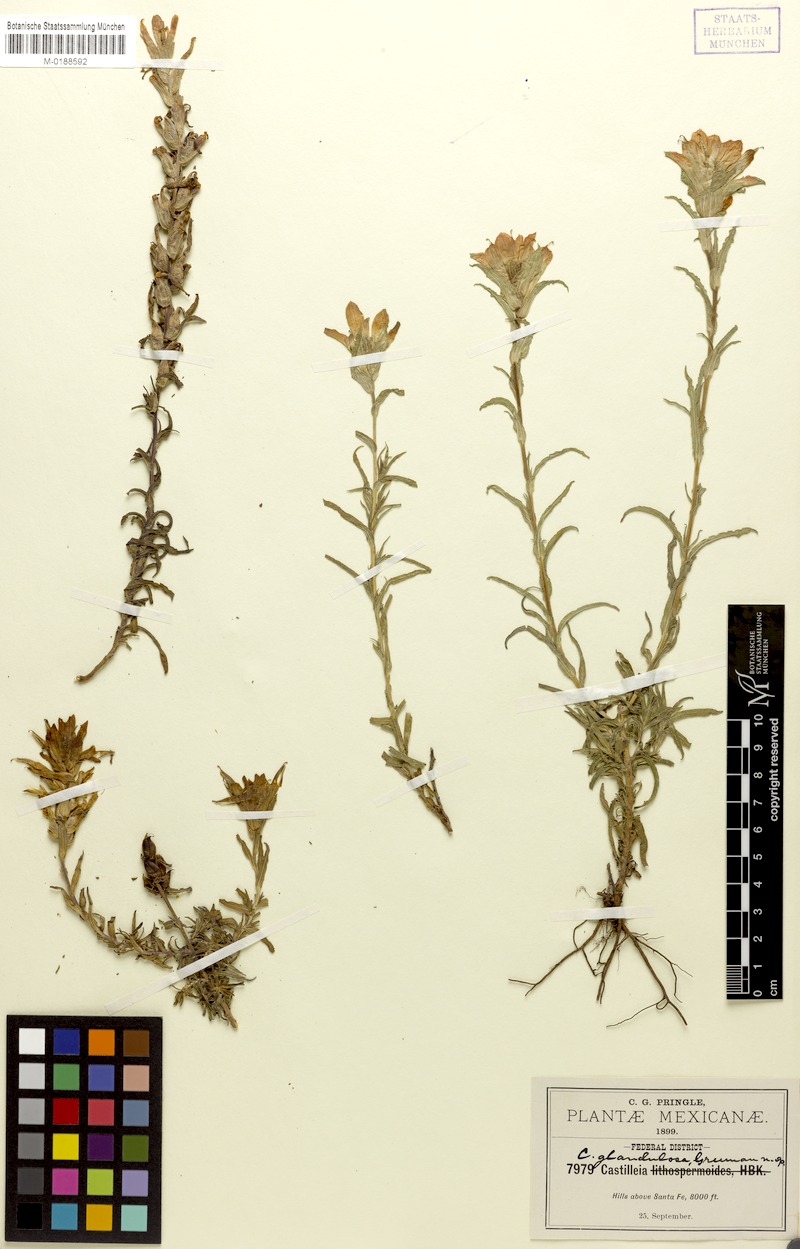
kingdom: Plantae
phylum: Tracheophyta
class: Magnoliopsida
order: Lamiales
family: Orobanchaceae
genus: Castilleja
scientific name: Castilleja scorzonerifolia
